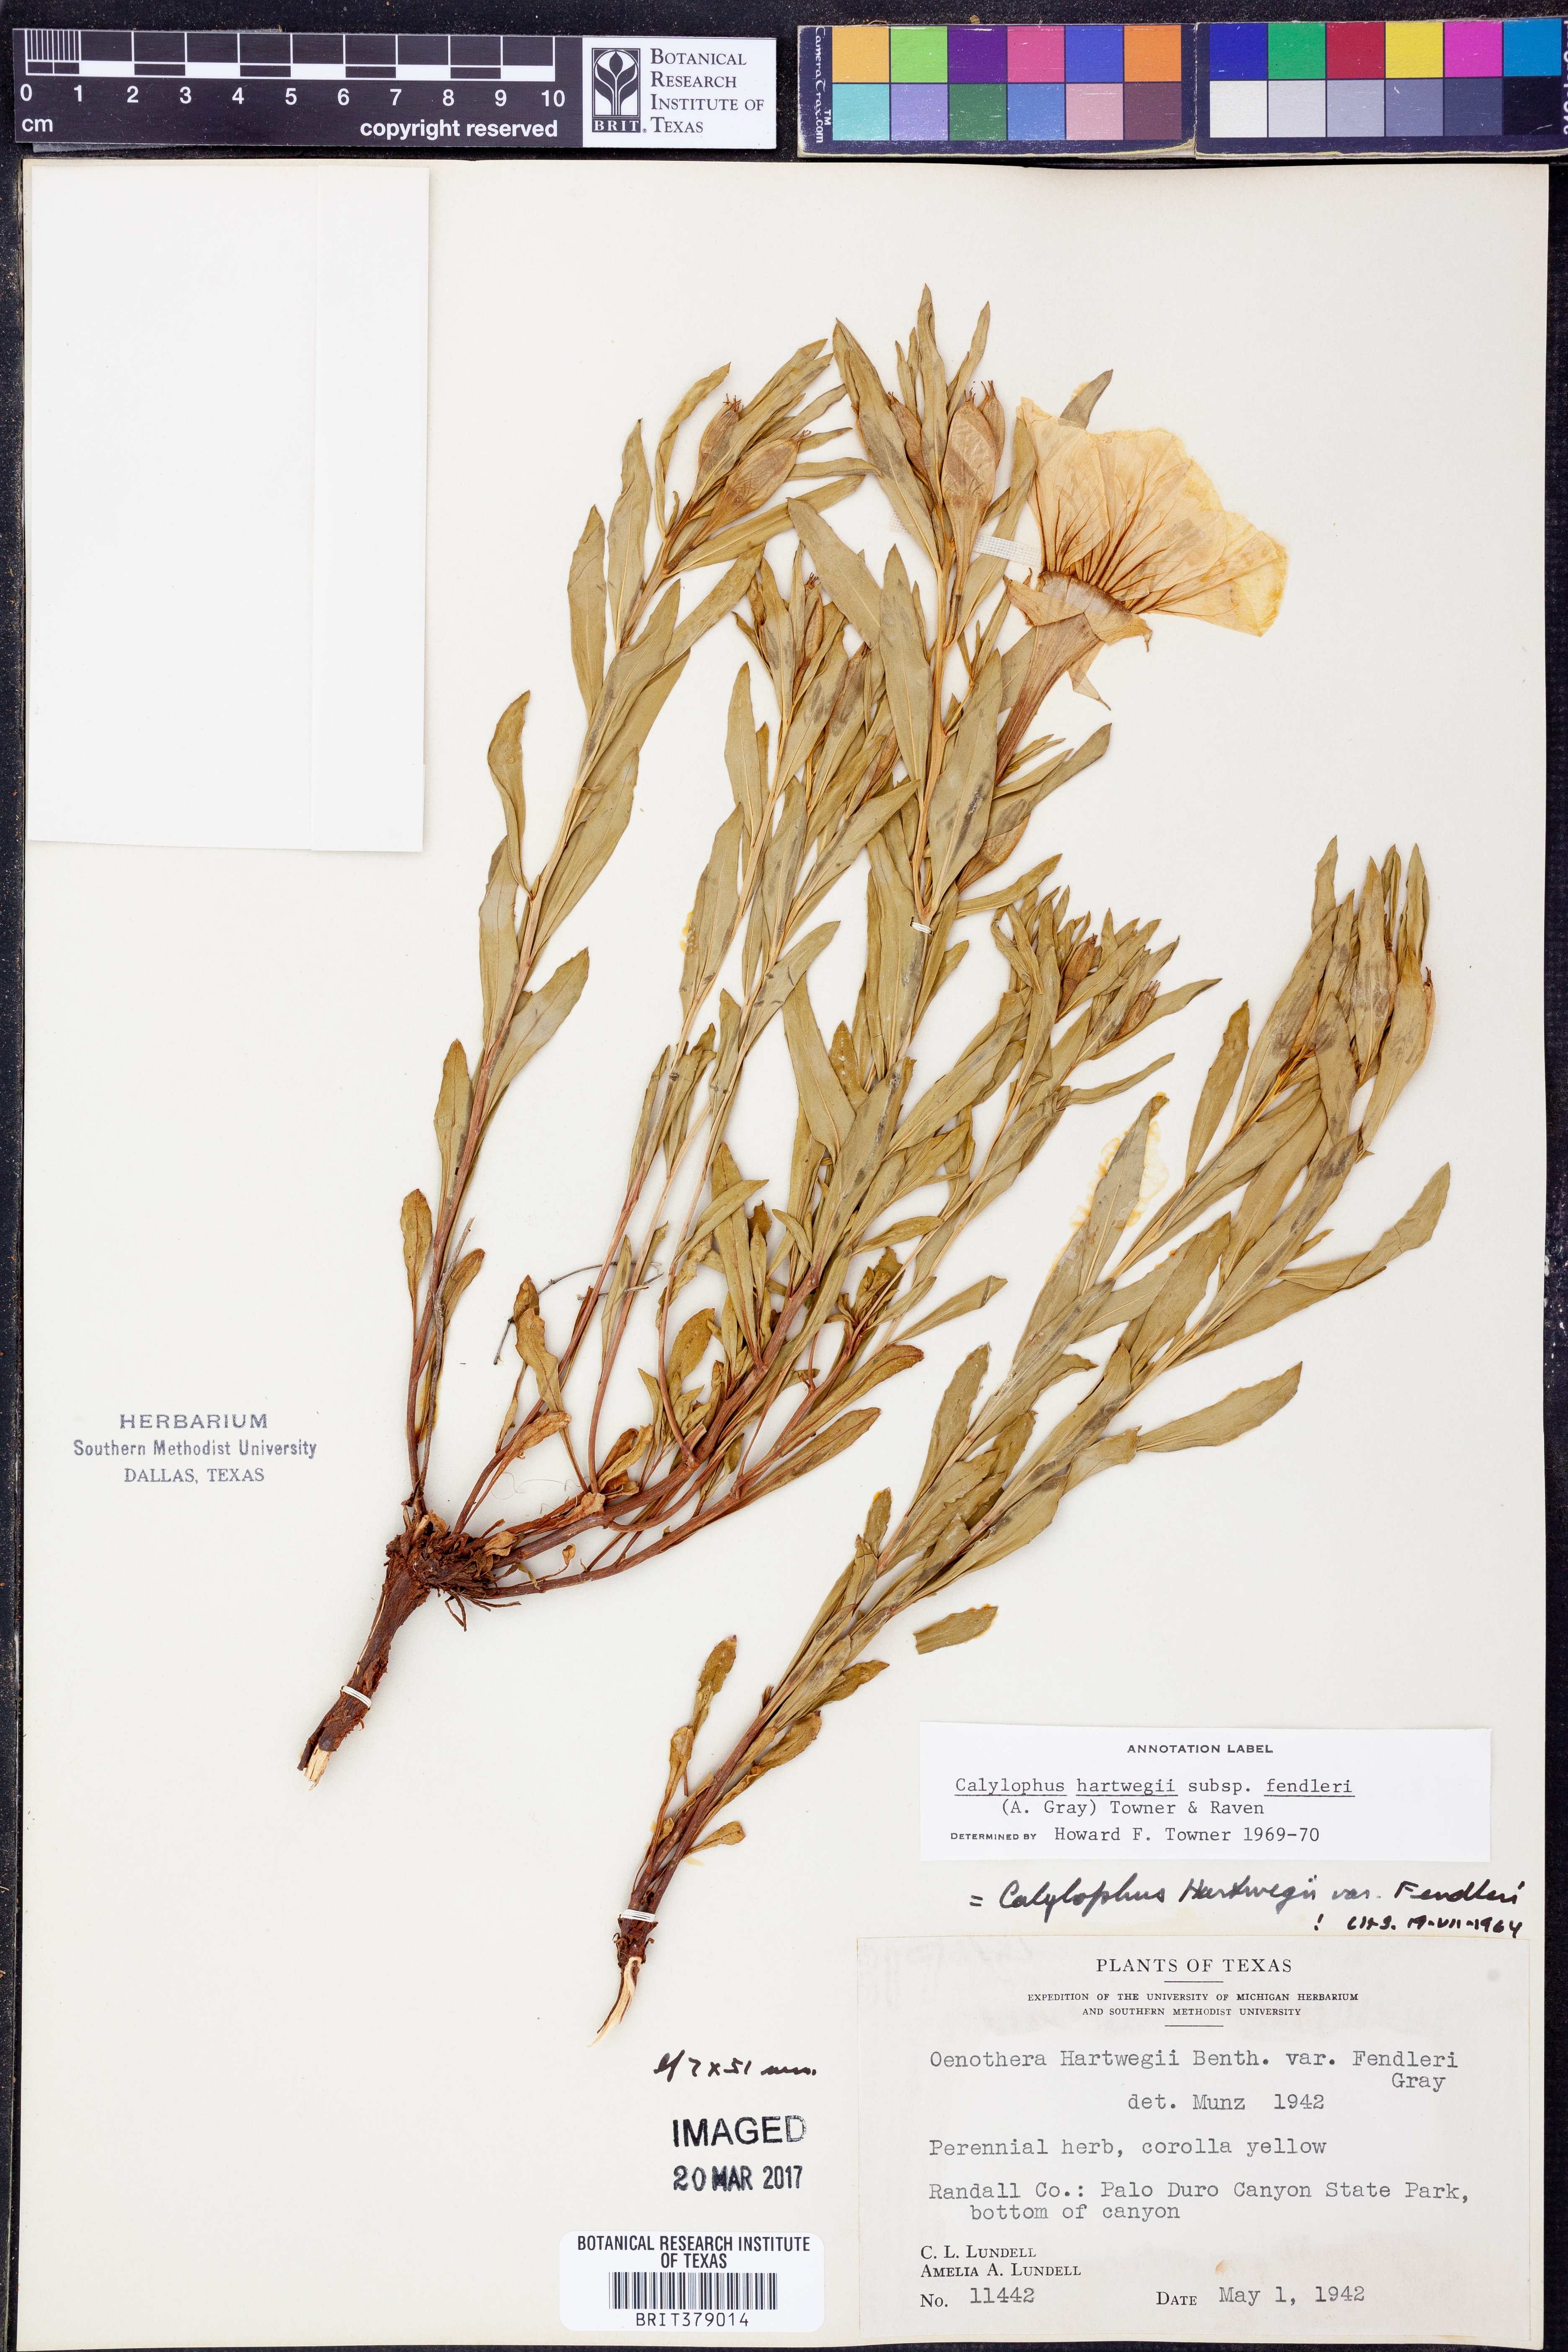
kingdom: Plantae
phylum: Tracheophyta
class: Magnoliopsida
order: Myrtales
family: Onagraceae
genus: Oenothera
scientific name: Oenothera hartwegii
